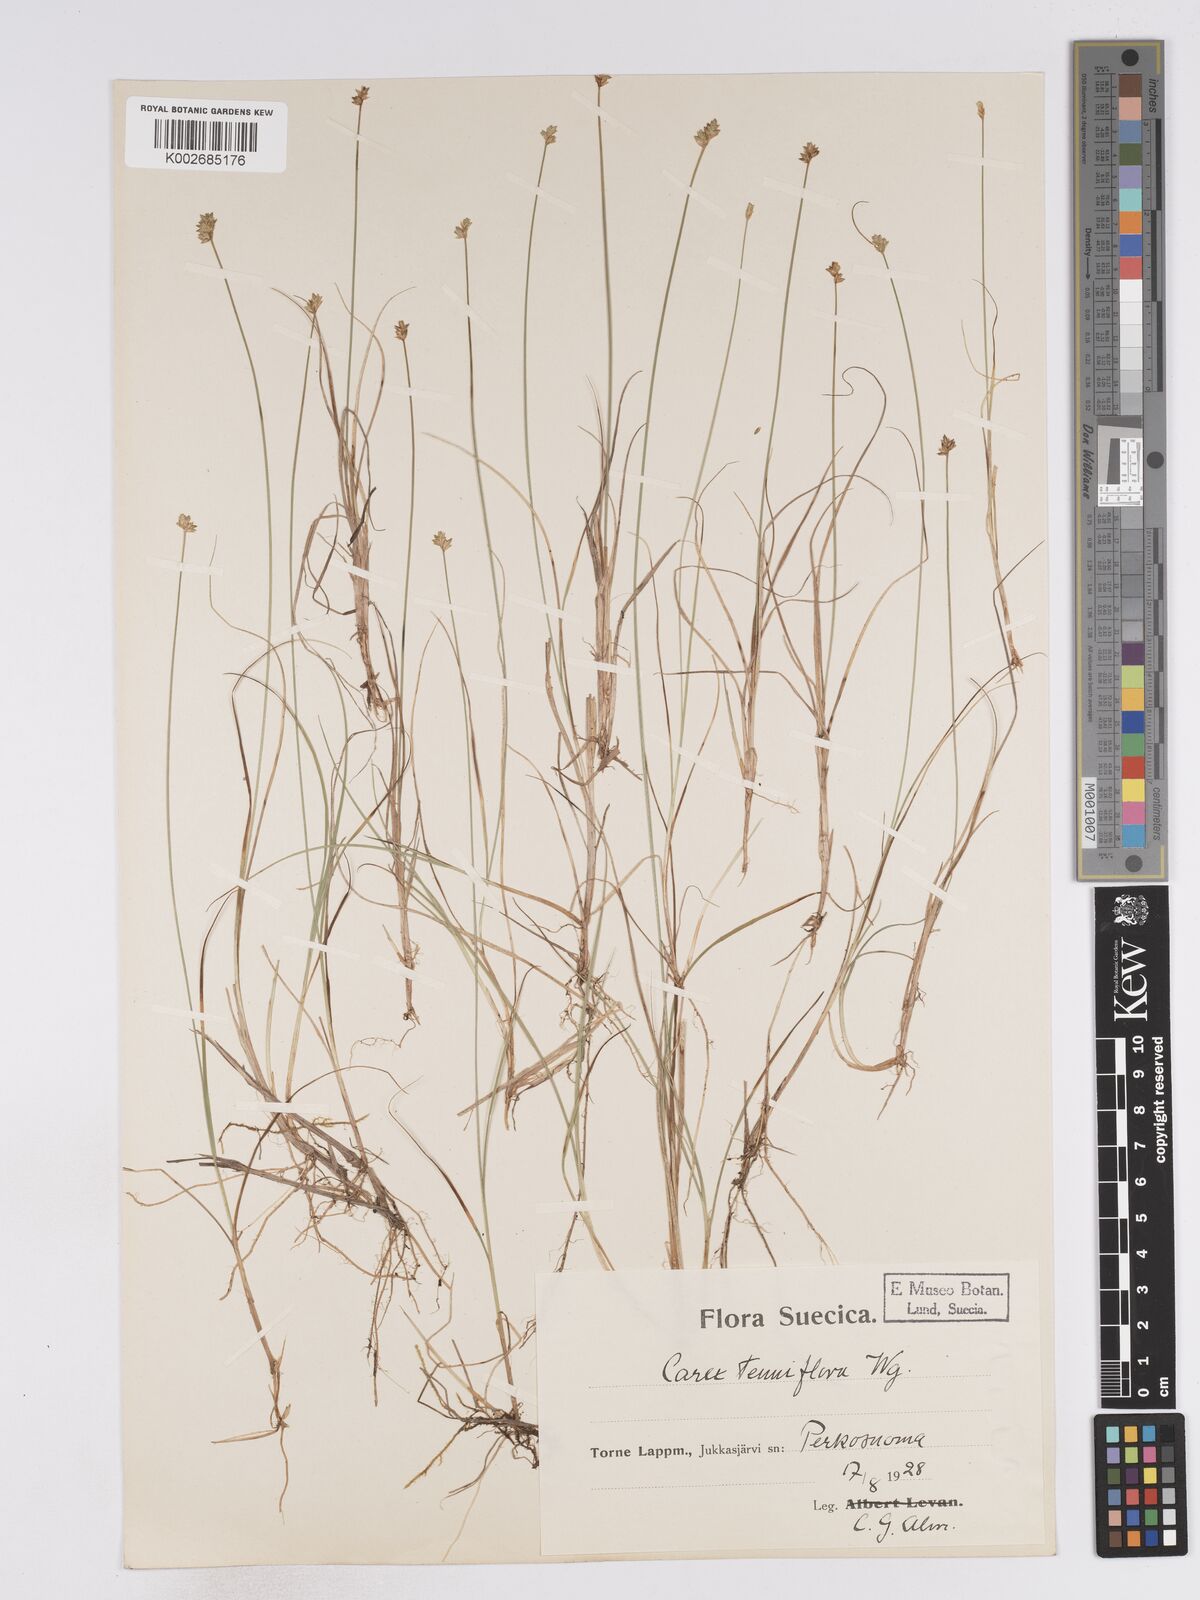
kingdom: Plantae
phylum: Tracheophyta
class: Liliopsida
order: Poales
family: Cyperaceae
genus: Carex
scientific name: Carex tenuiflora
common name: Sparse-flowered sedge
